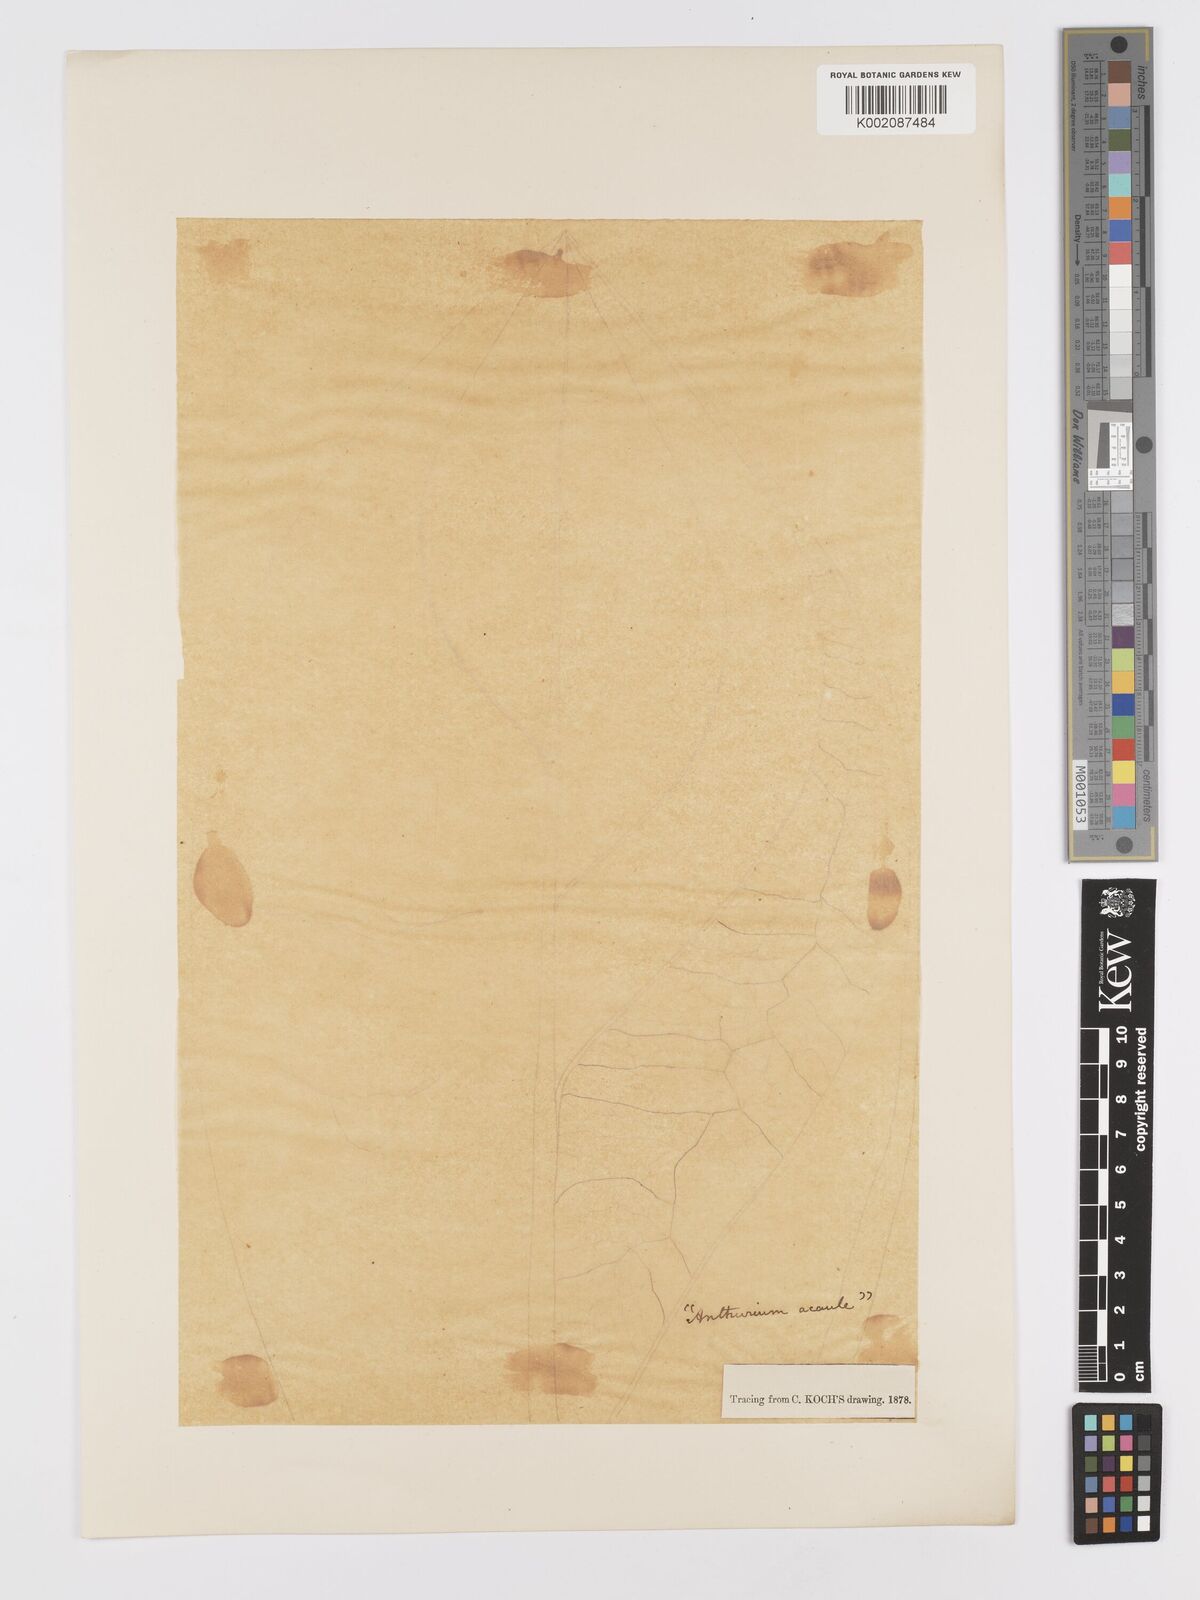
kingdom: Plantae
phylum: Tracheophyta
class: Liliopsida
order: Alismatales
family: Araceae
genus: Anthurium
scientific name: Anthurium crassinervium
